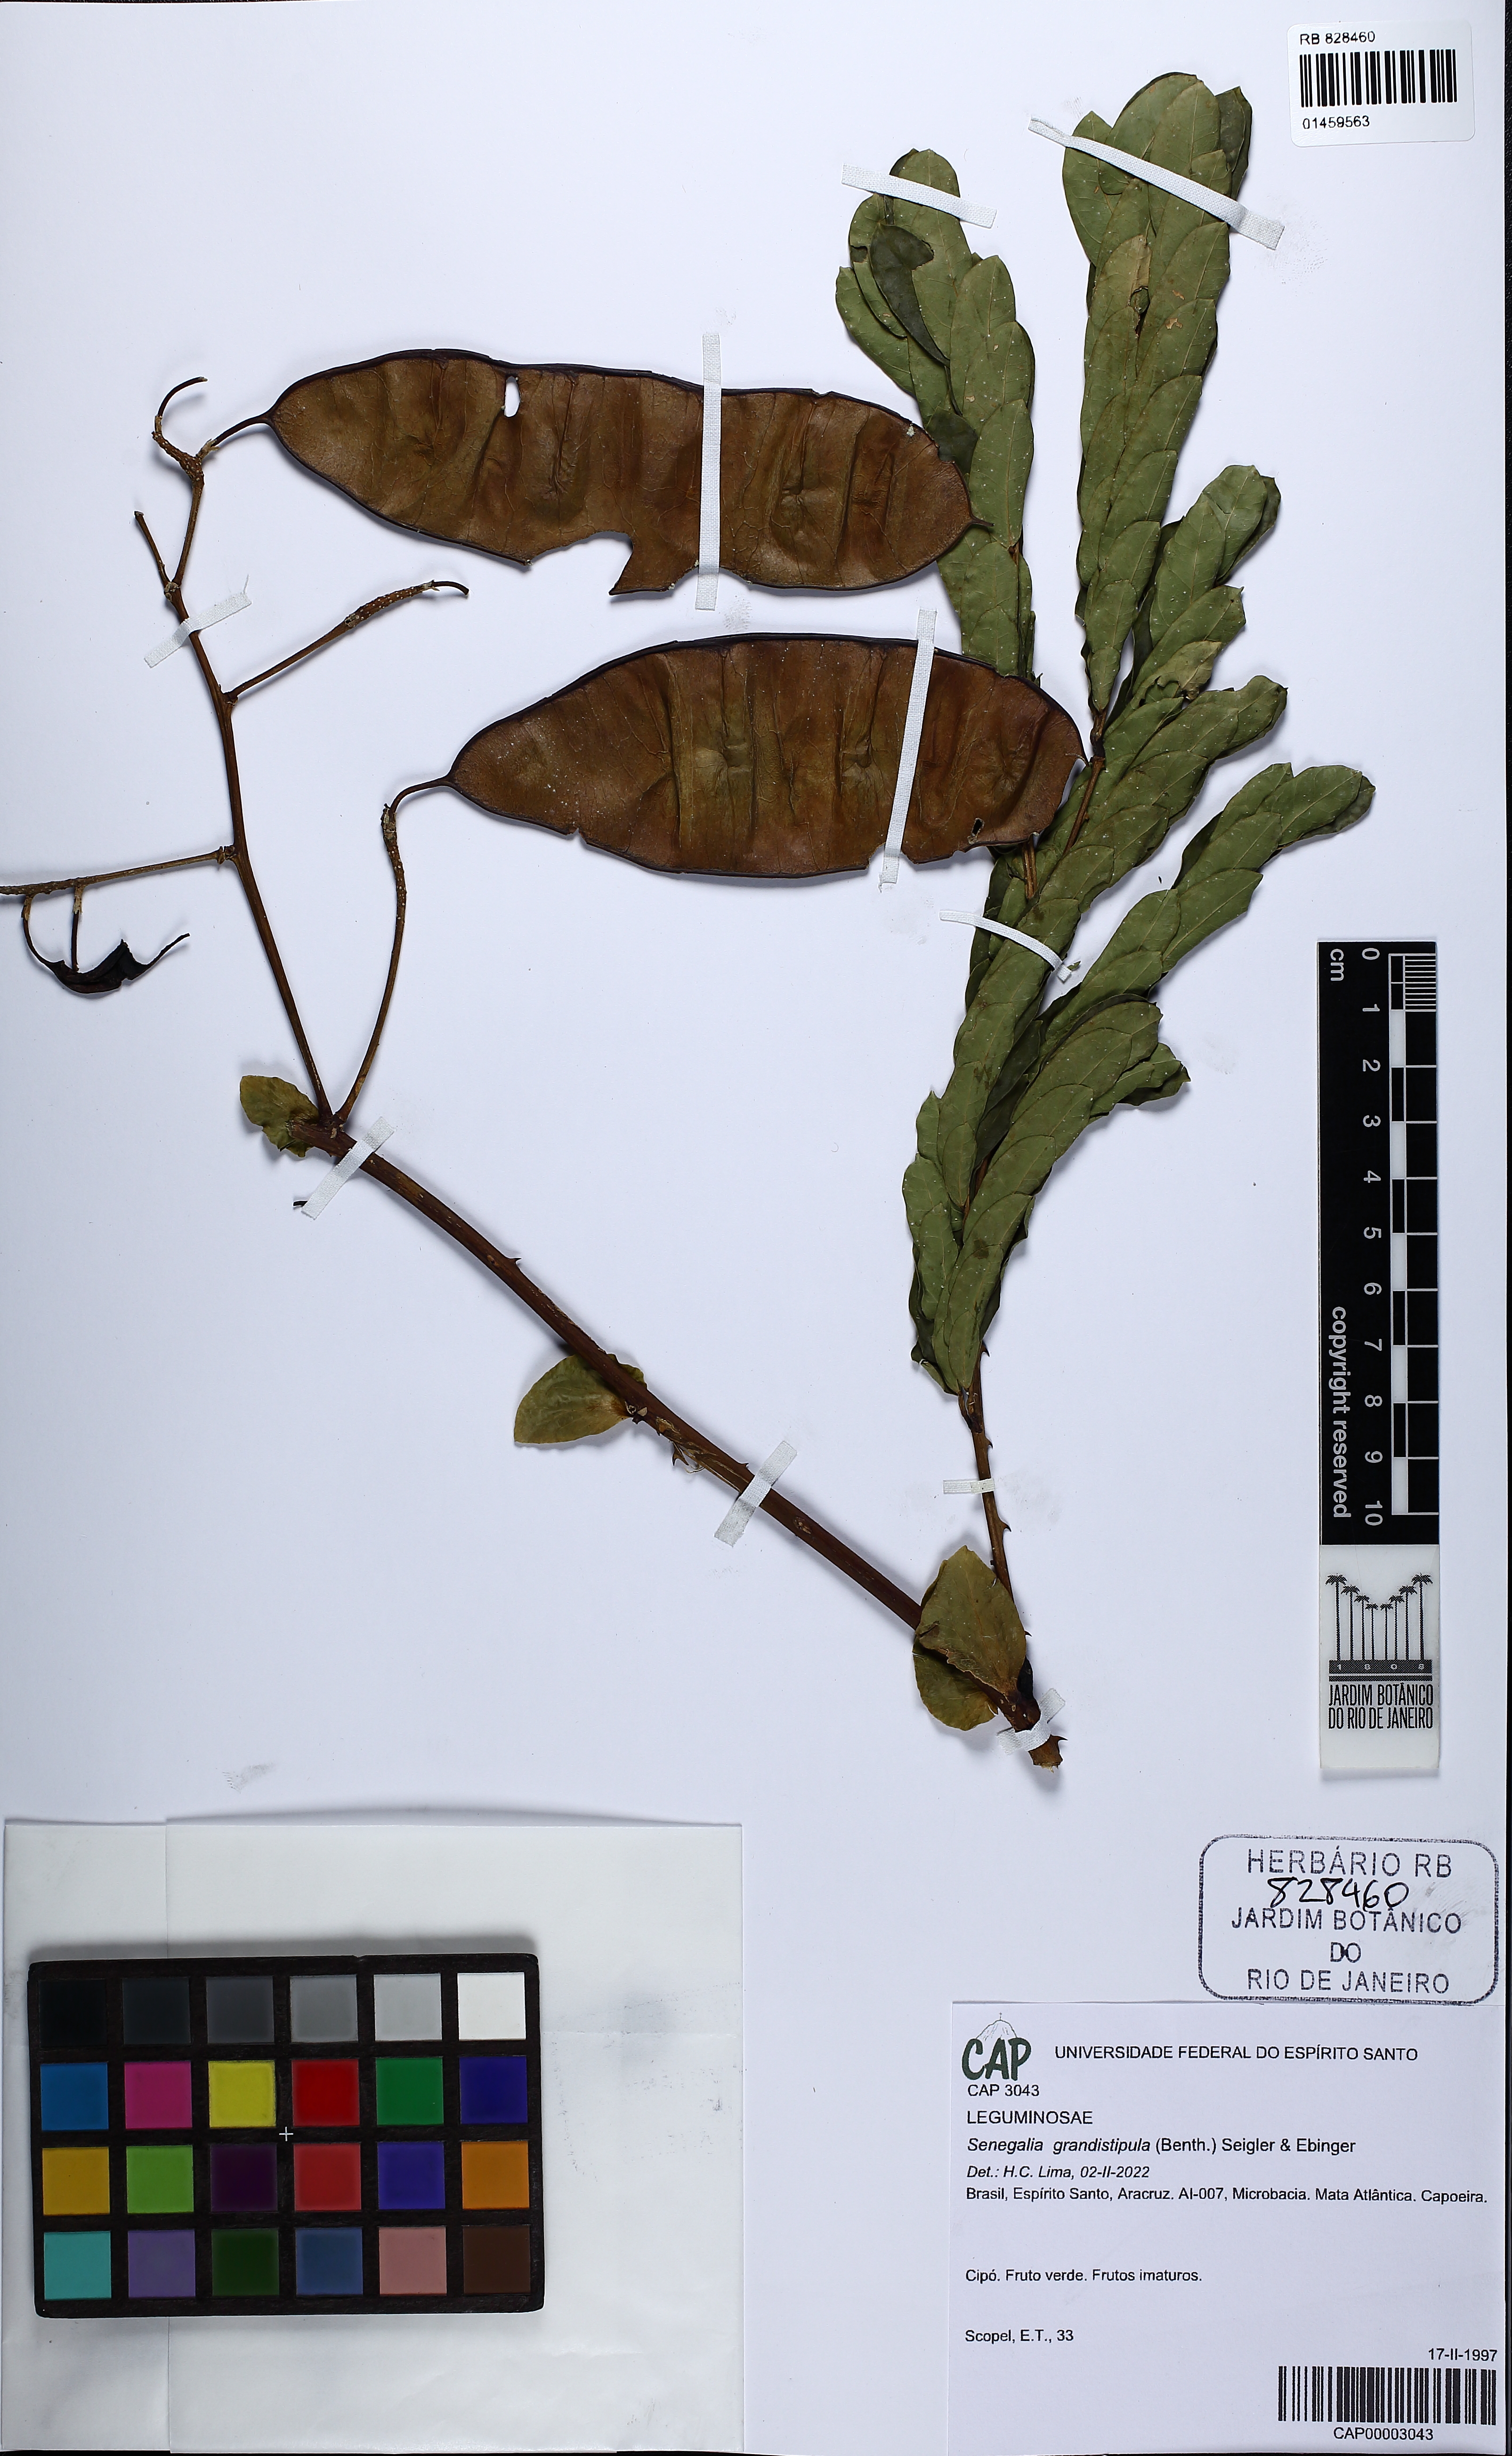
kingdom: Plantae
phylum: Tracheophyta
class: Magnoliopsida
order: Fabales
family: Fabaceae
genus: Senegalia
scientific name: Senegalia grandistipula
